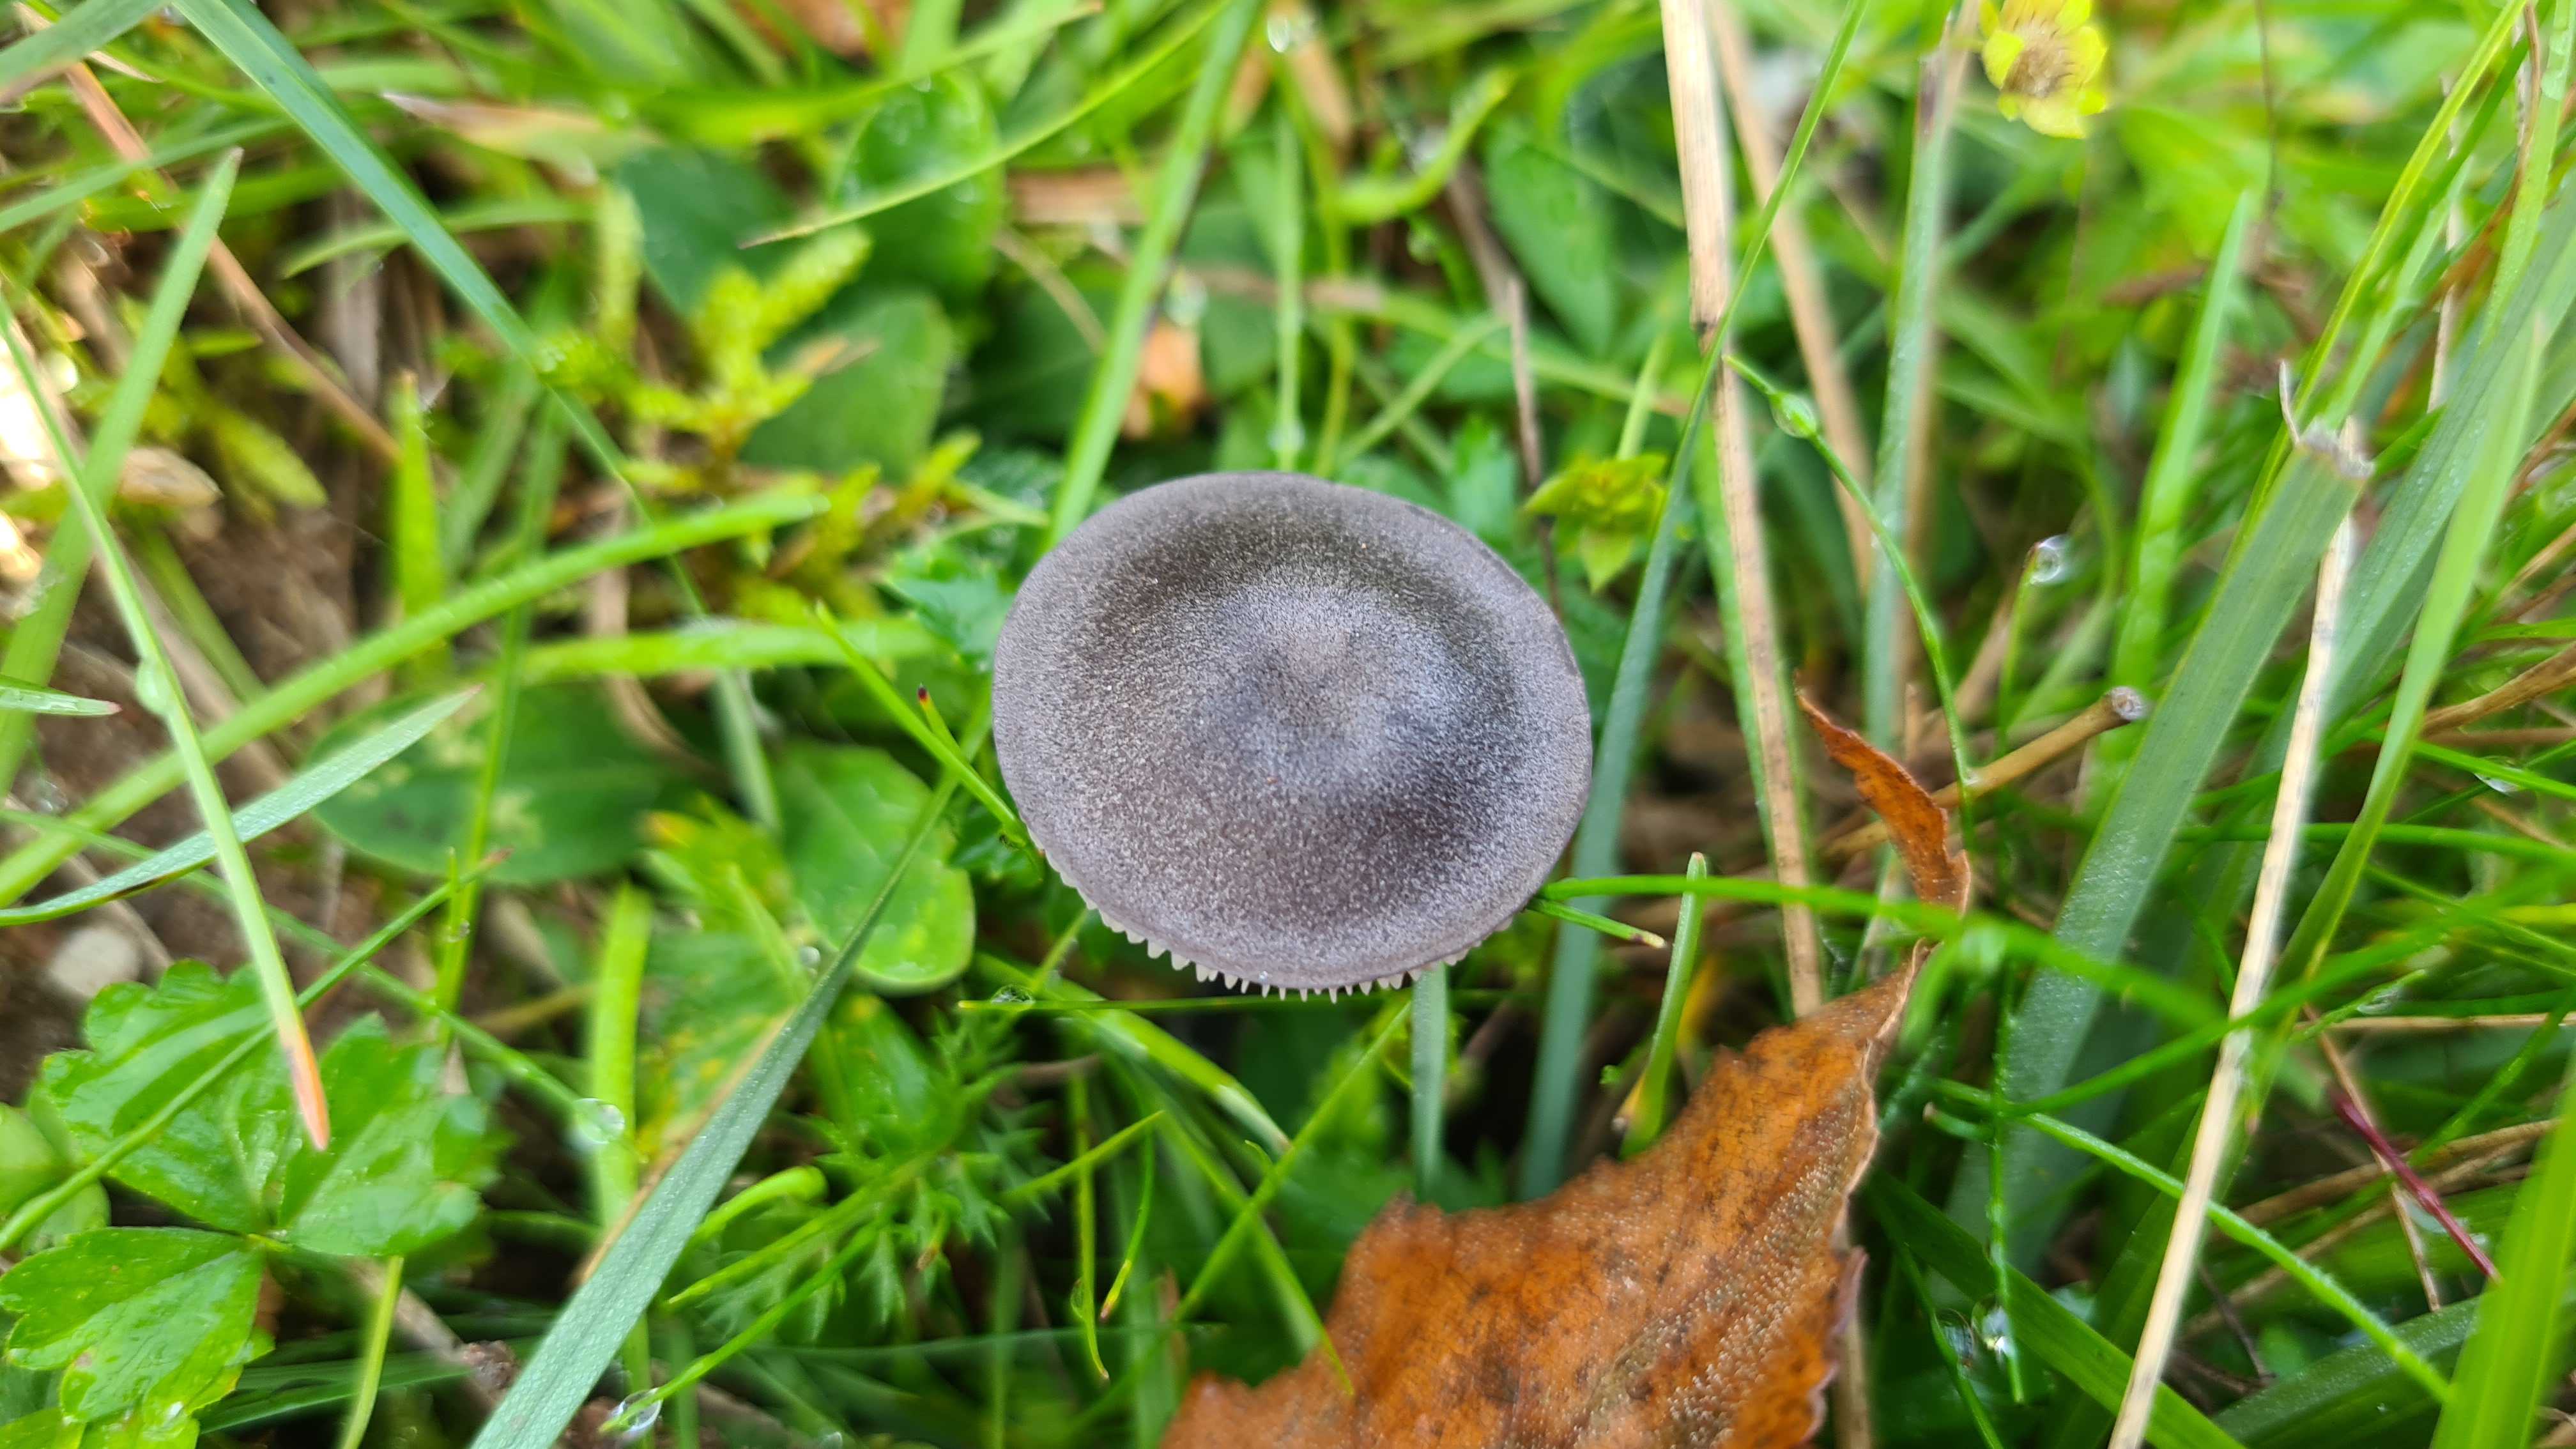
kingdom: Fungi
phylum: Basidiomycota
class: Agaricomycetes
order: Agaricales
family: Entolomataceae
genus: Entoloma
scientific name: Entoloma
